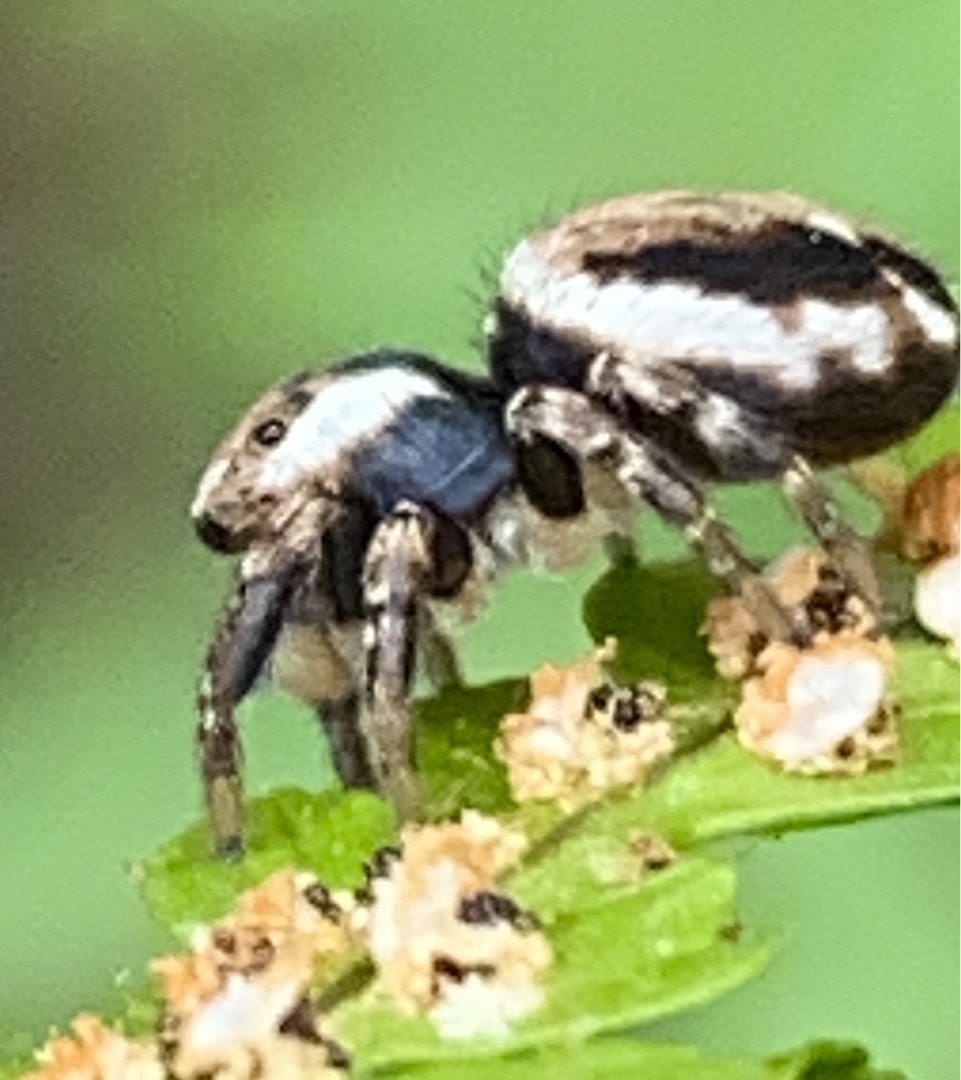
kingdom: Animalia
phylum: Arthropoda
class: Arachnida
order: Araneae
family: Salticidae
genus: Evarcha
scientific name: Evarcha falcata
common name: Broget springedderkop
